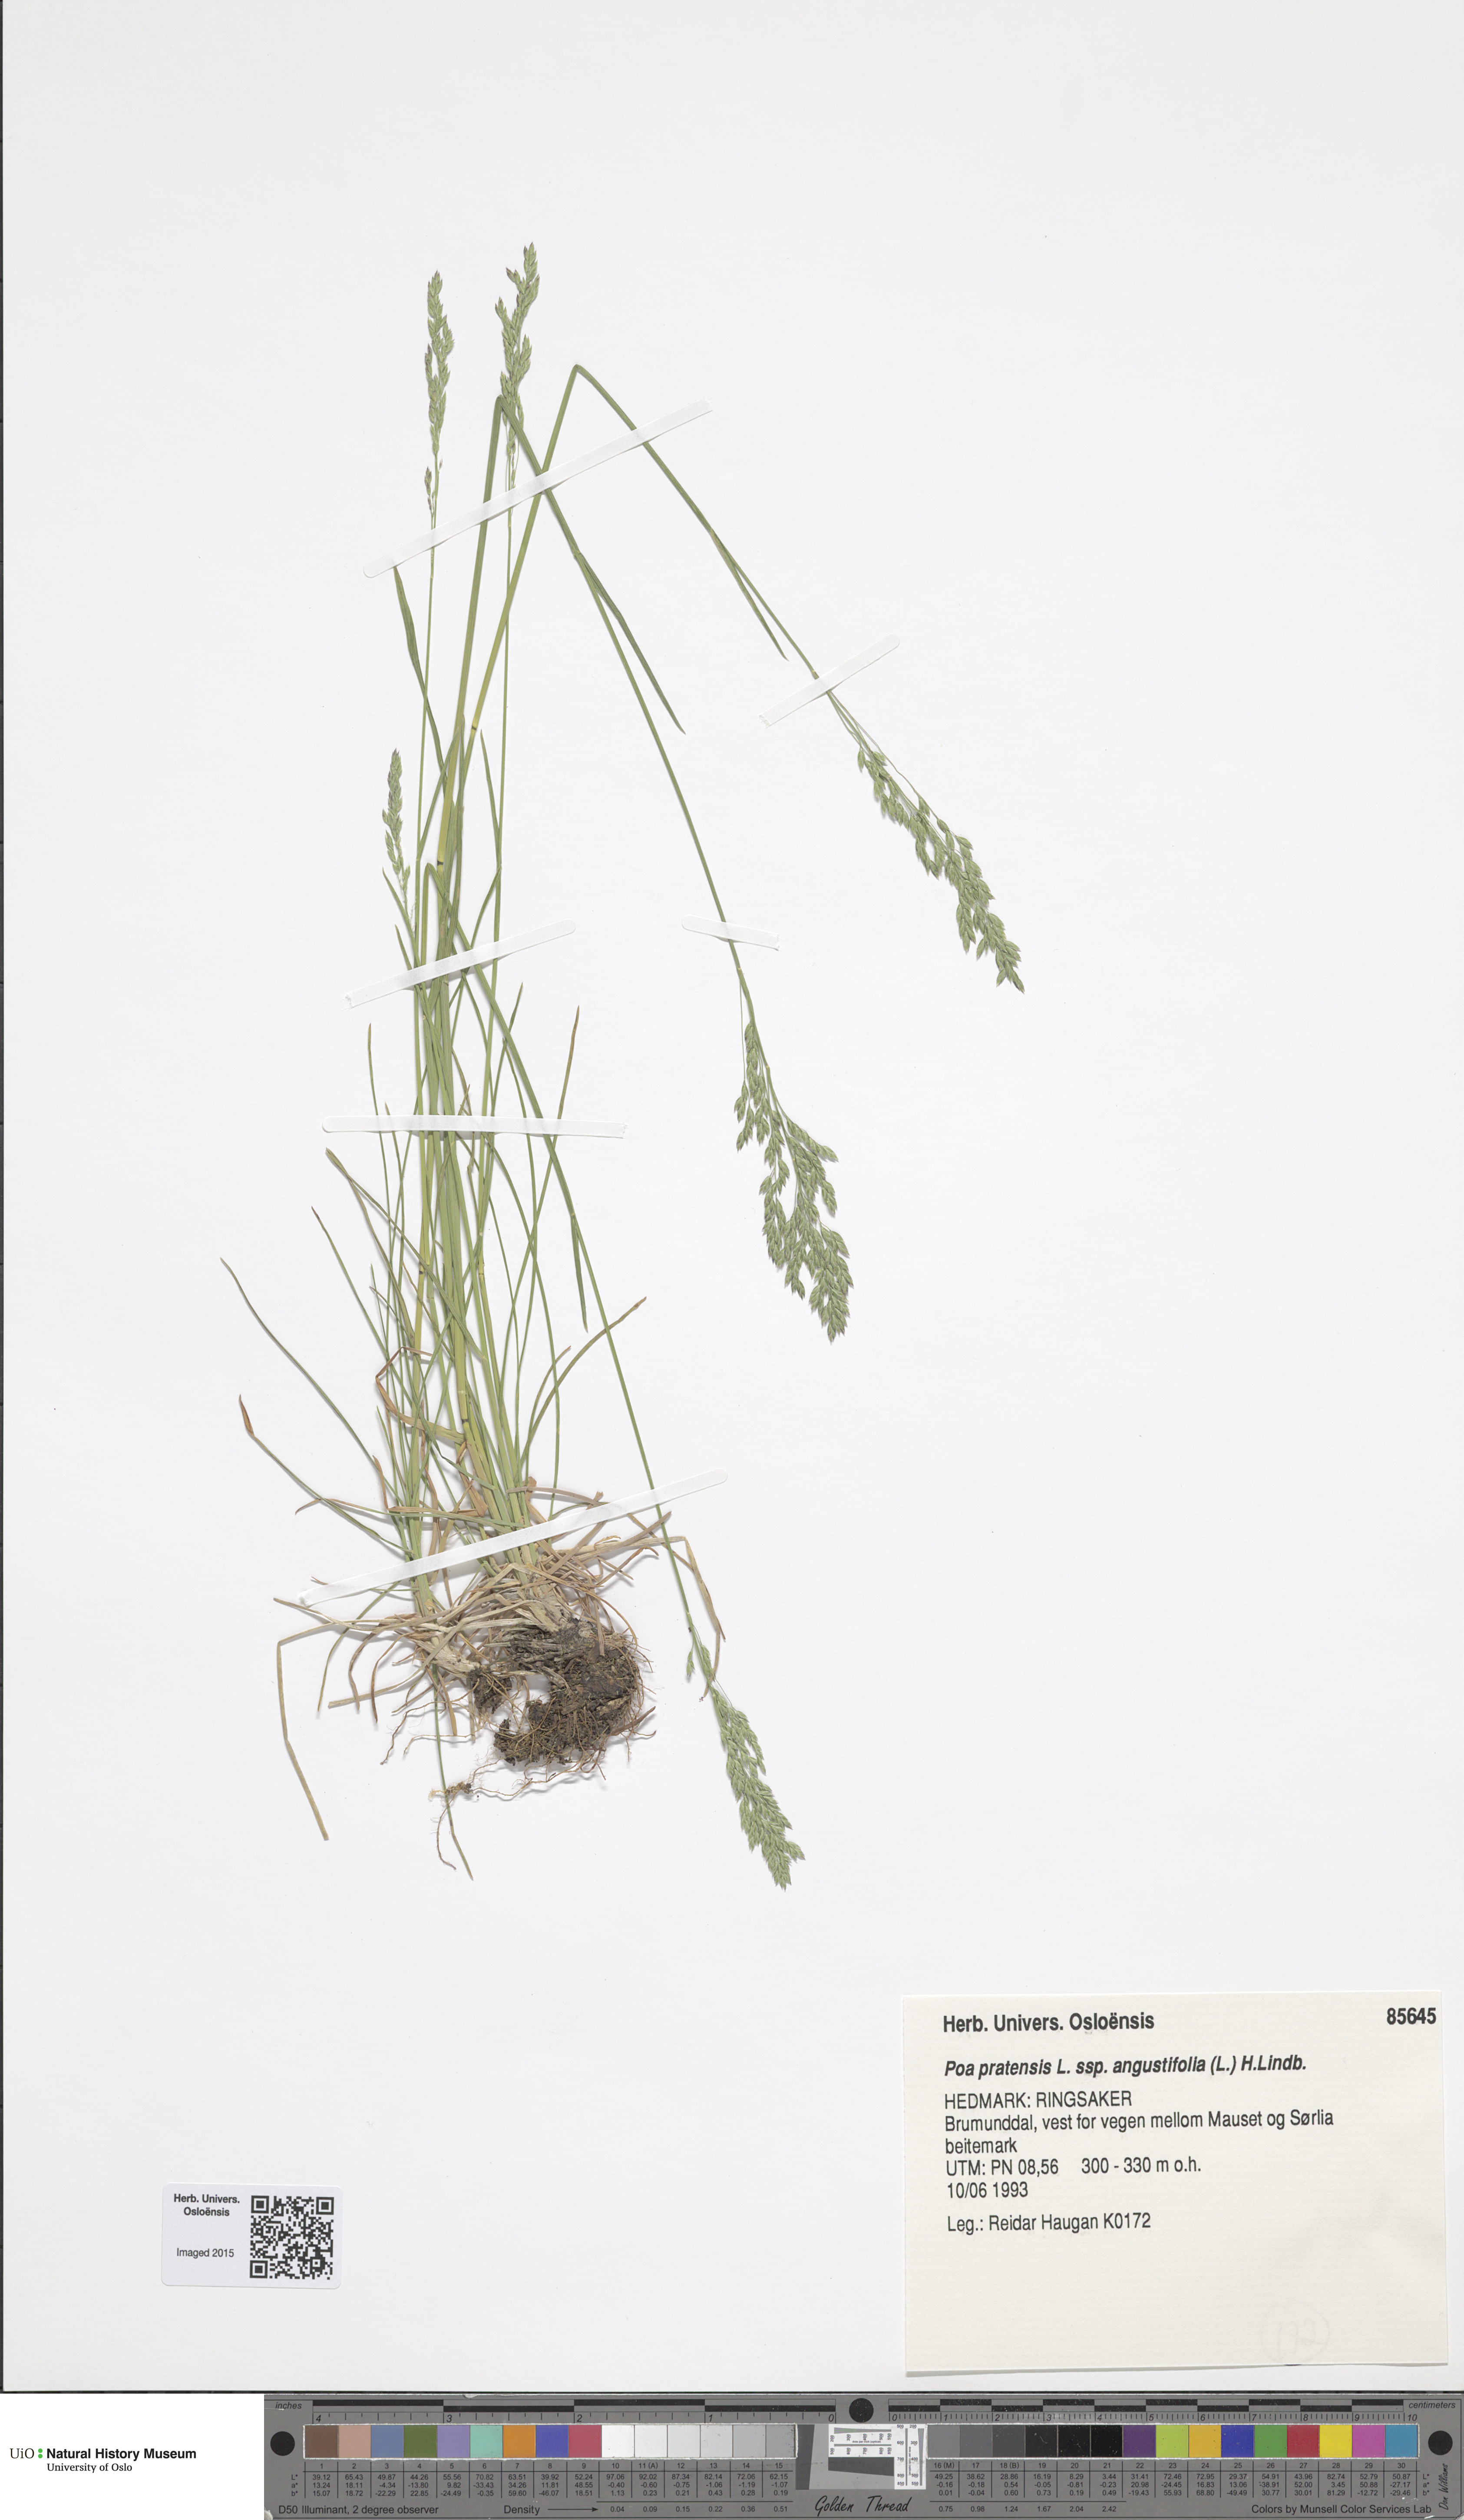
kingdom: Plantae
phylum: Tracheophyta
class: Liliopsida
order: Poales
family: Poaceae
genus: Poa
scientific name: Poa angustifolia
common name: Narrow-leaved meadow-grass
